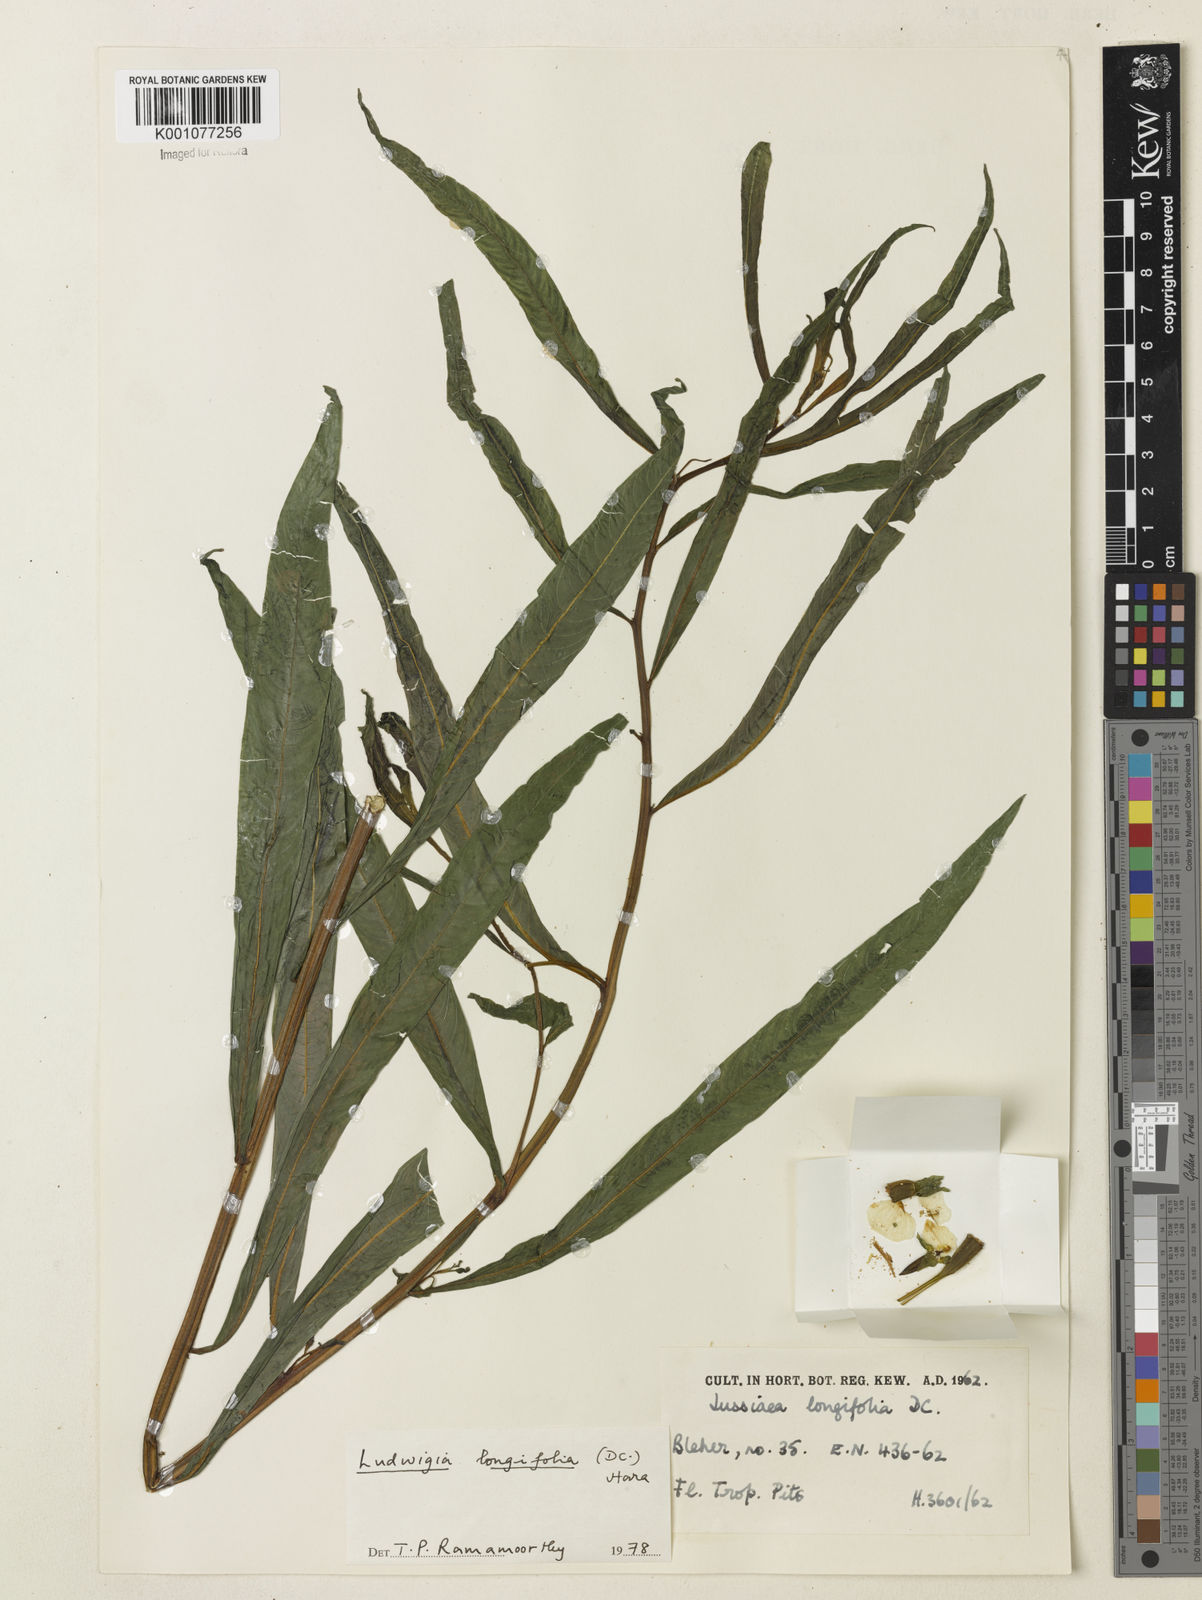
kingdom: Plantae
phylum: Tracheophyta
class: Magnoliopsida
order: Myrtales
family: Onagraceae
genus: Ludwigia
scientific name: Ludwigia longifolia
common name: Longleaf primrose-willow
